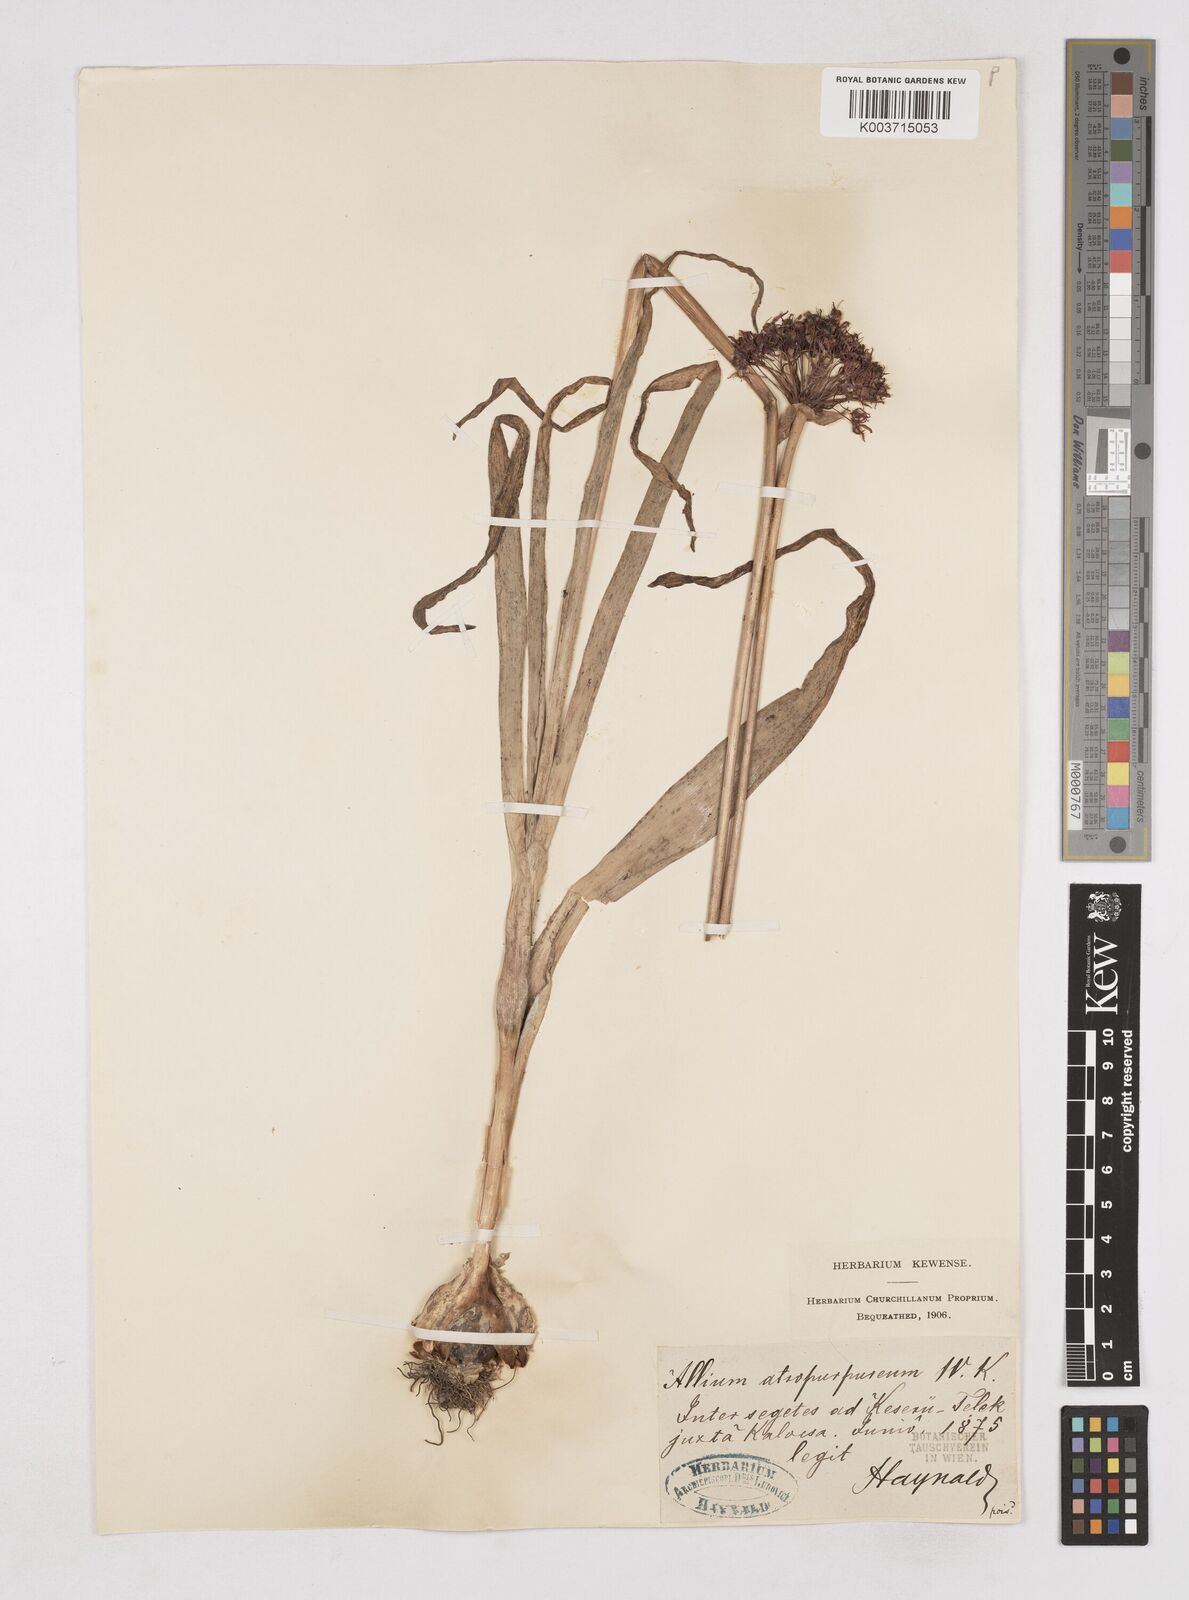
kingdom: Plantae
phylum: Tracheophyta
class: Liliopsida
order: Asparagales
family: Amaryllidaceae
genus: Allium
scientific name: Allium atropurpureum
